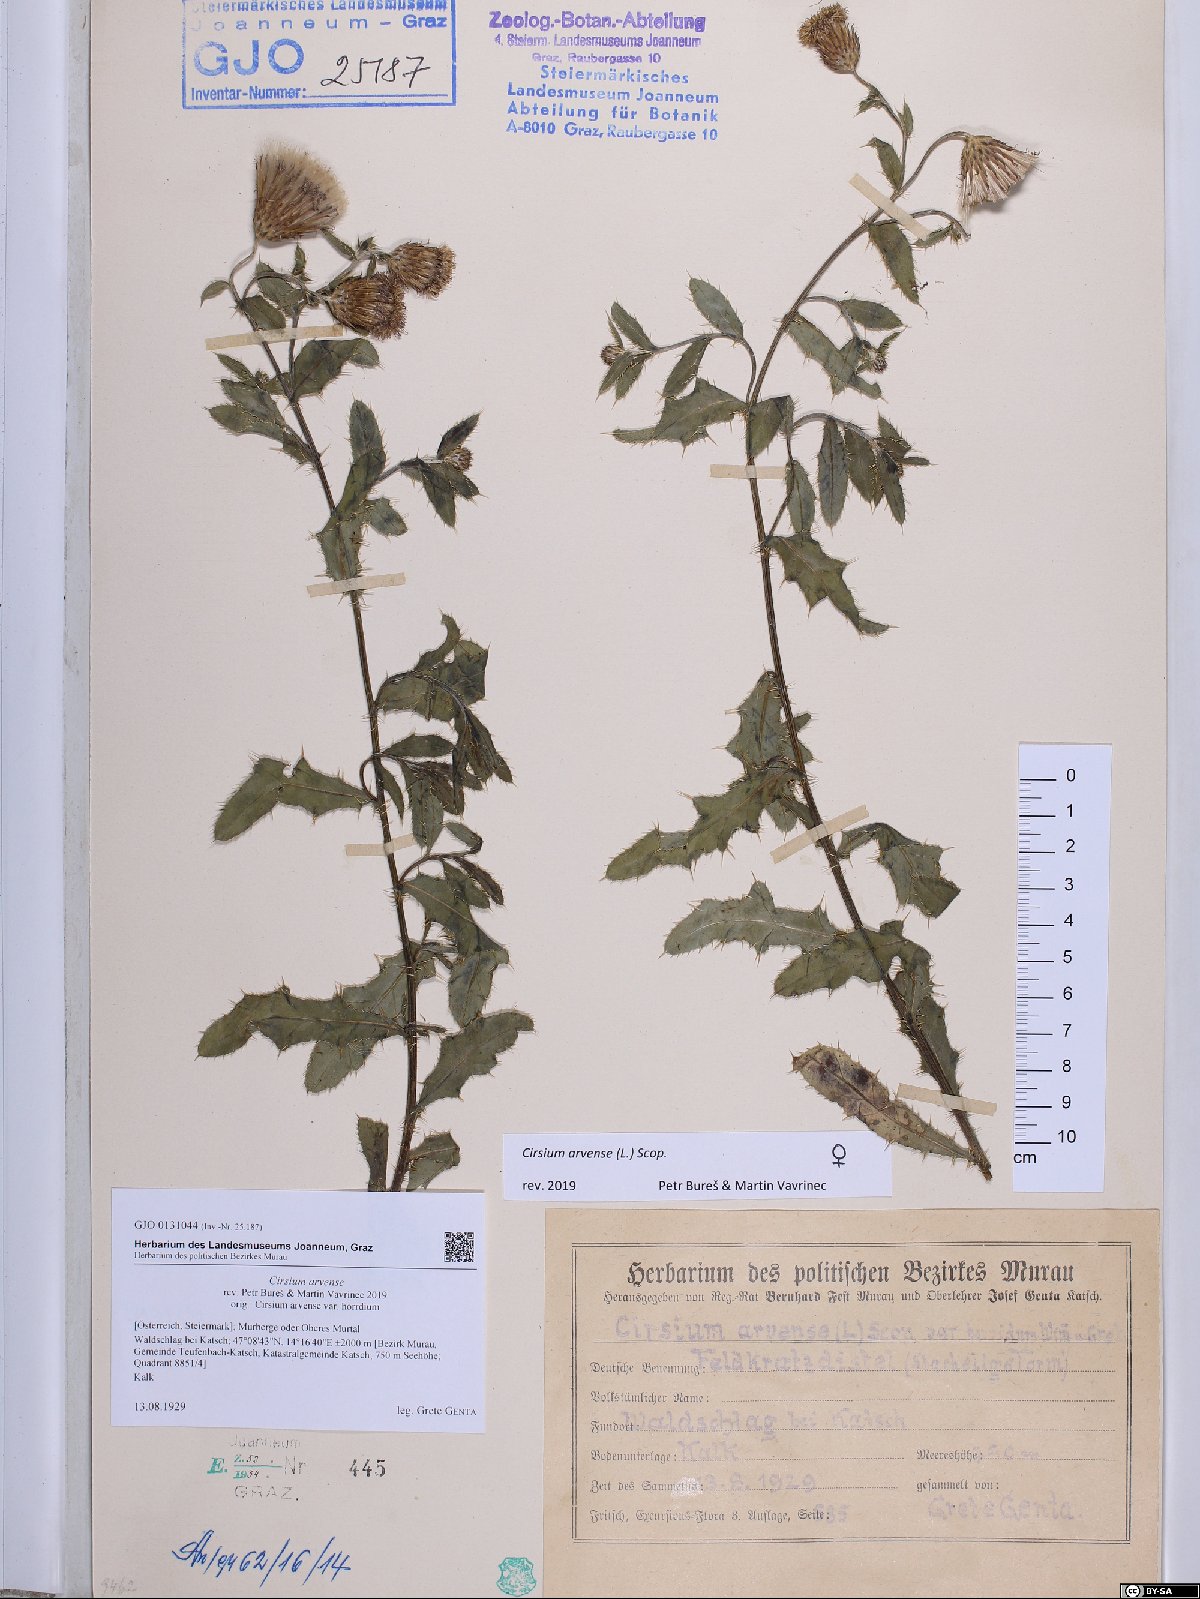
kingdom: Plantae
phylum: Tracheophyta
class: Magnoliopsida
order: Asterales
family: Asteraceae
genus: Cirsium
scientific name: Cirsium arvense
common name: Creeping thistle
